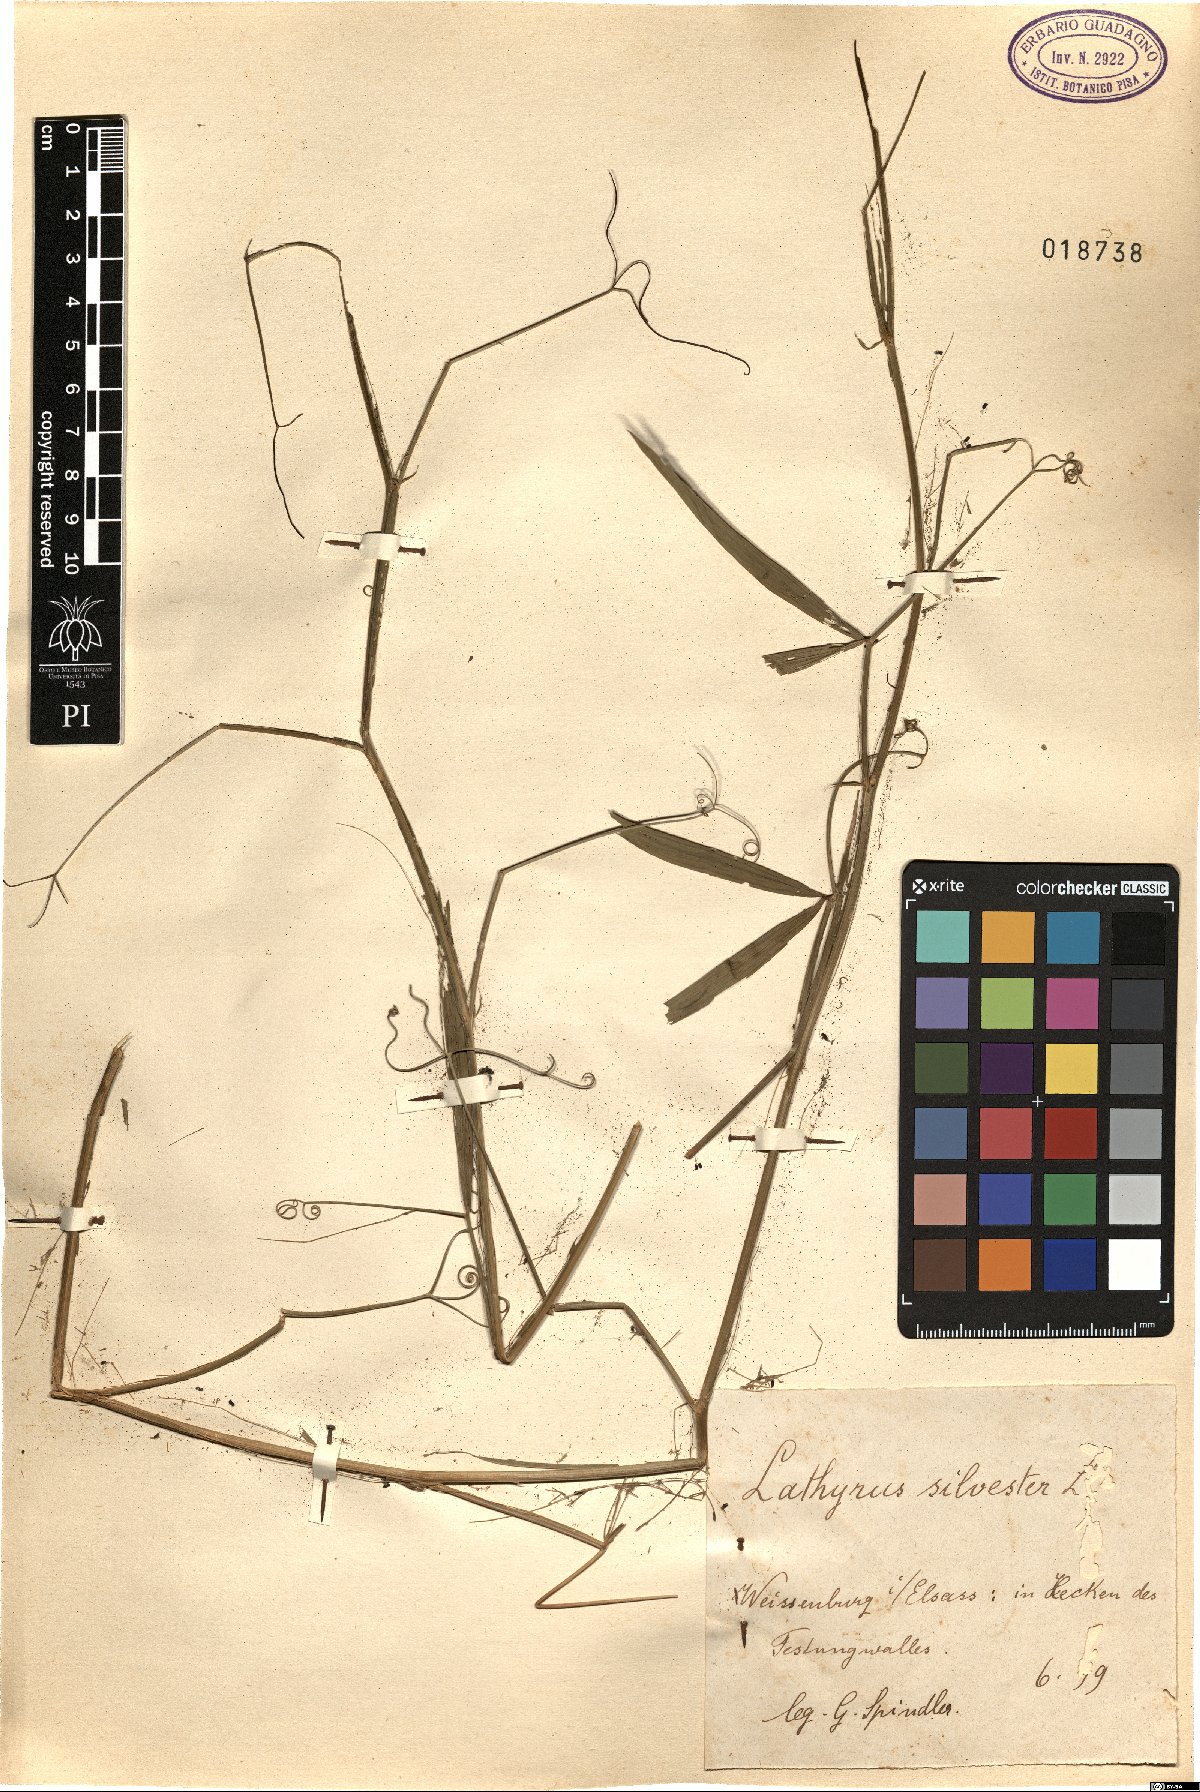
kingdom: Plantae
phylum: Tracheophyta
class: Magnoliopsida
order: Fabales
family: Fabaceae
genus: Lathyrus
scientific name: Lathyrus sylvestris
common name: Flat pea
